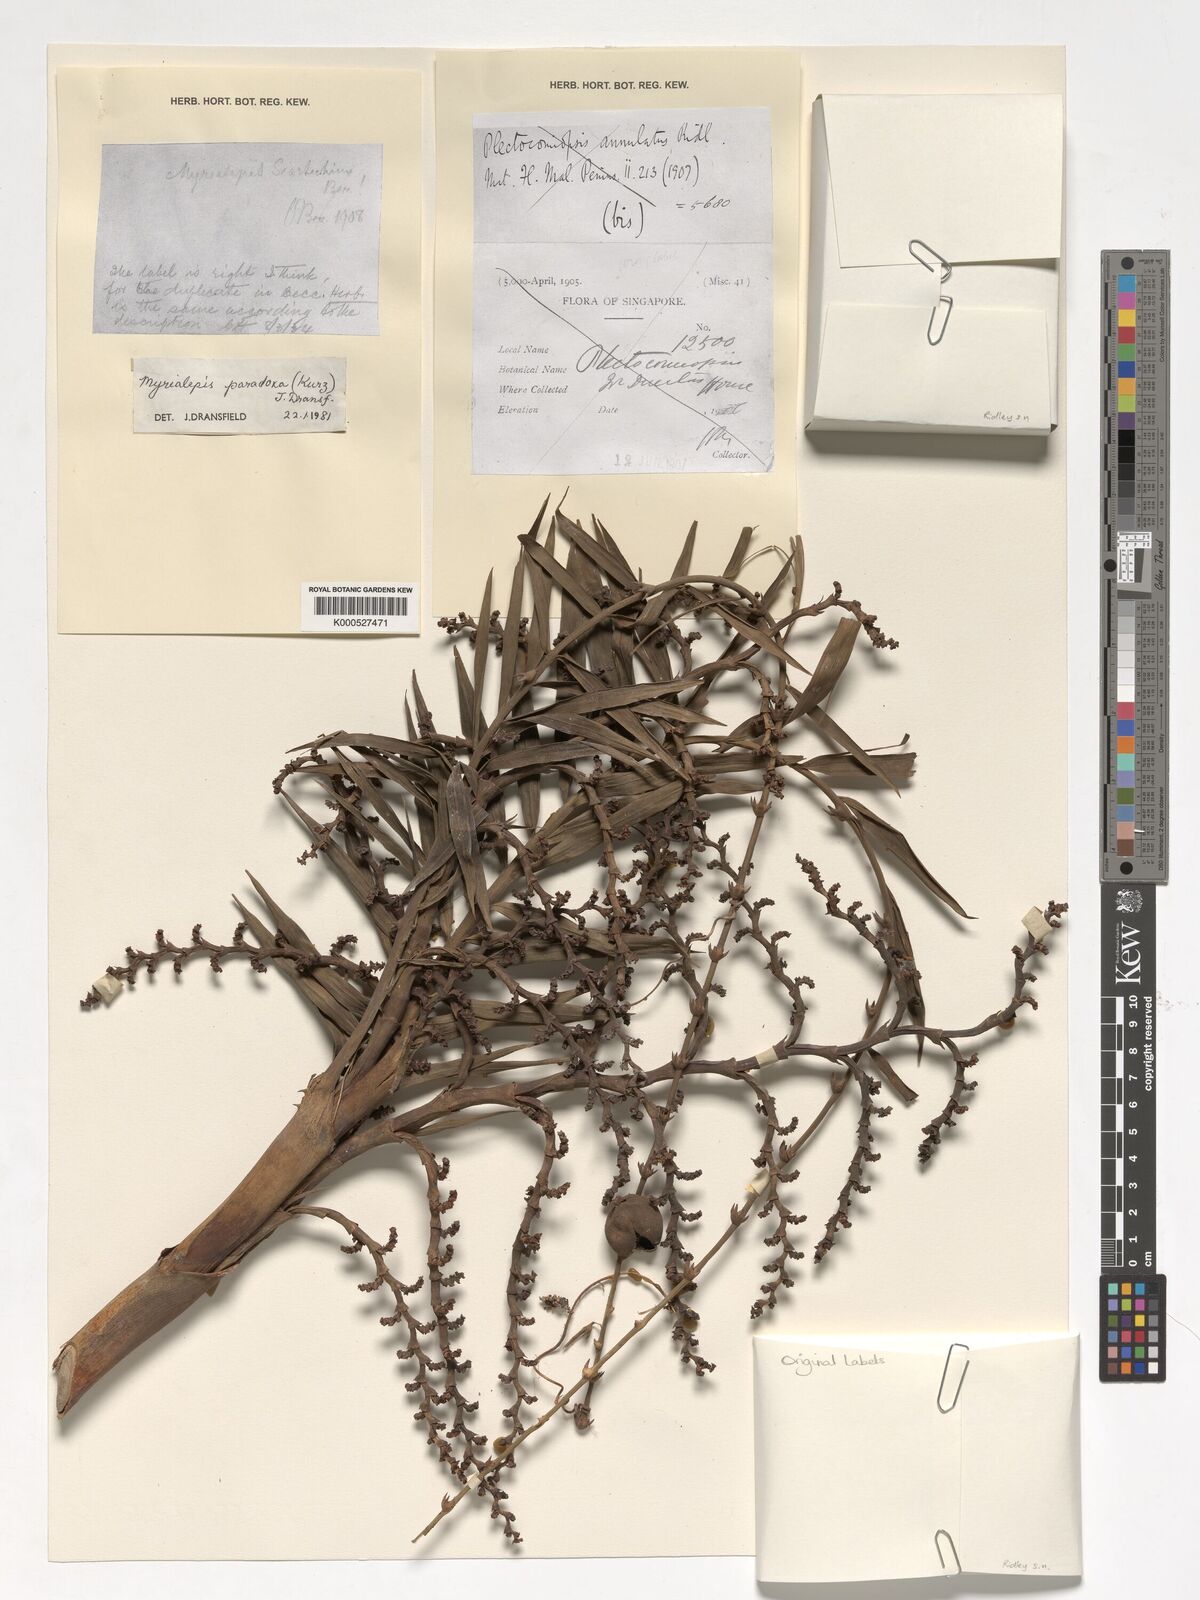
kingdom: Plantae
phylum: Tracheophyta
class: Liliopsida
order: Arecales
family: Arecaceae
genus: Myrialepis
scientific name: Myrialepis paradoxa
